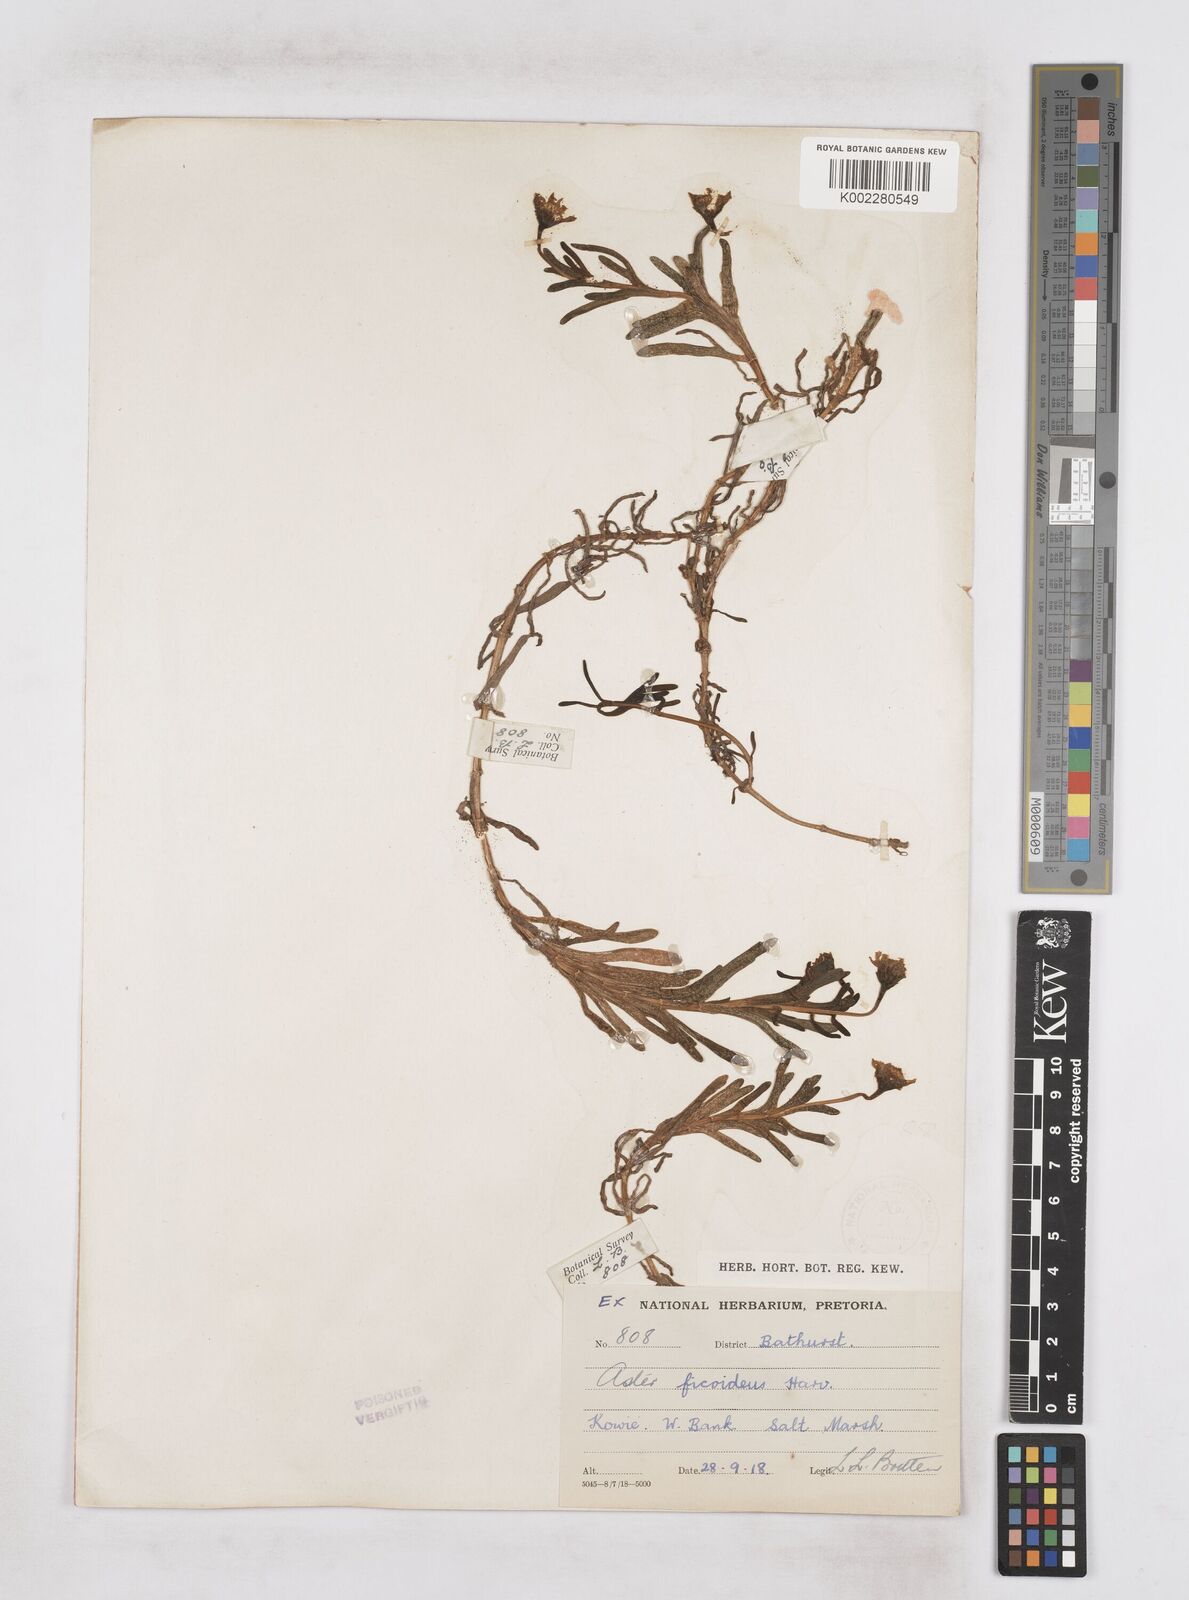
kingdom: Plantae
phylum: Tracheophyta
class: Magnoliopsida
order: Asterales
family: Asteraceae
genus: Poecilolepis
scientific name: Poecilolepis ficoidea
